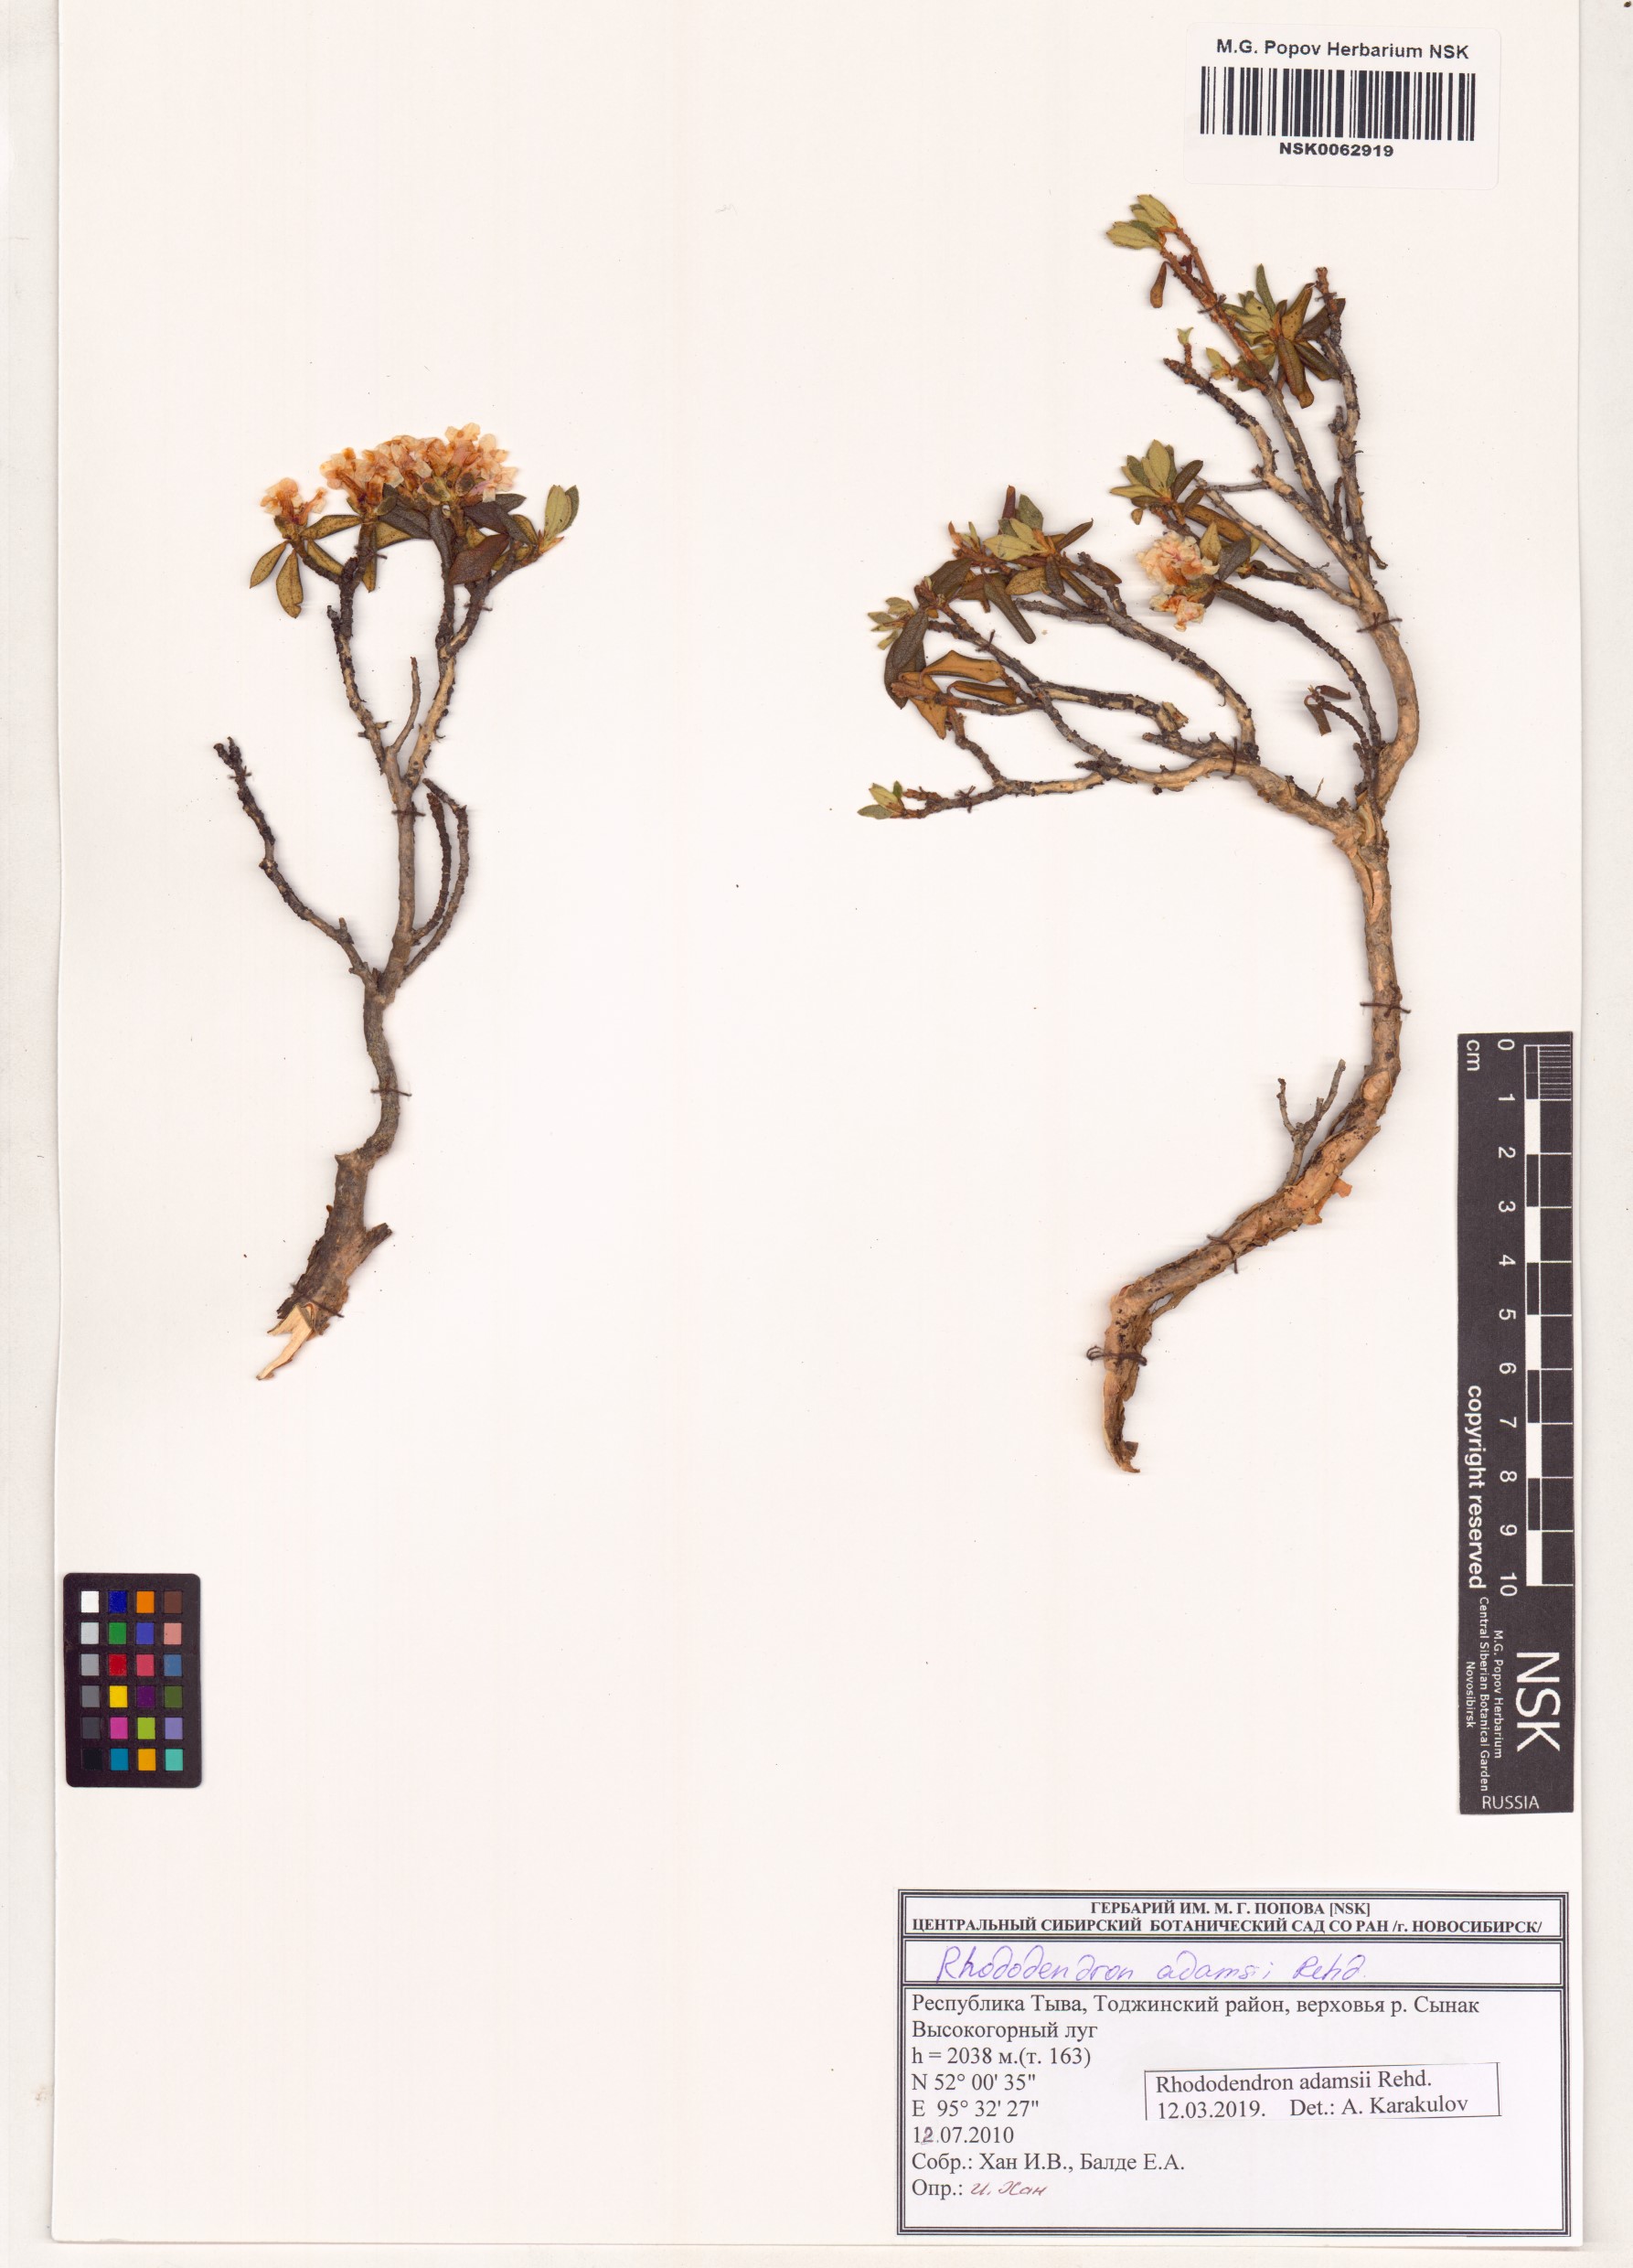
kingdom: Plantae
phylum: Tracheophyta
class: Magnoliopsida
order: Ericales
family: Ericaceae
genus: Rhododendron
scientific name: Rhododendron adamsii
